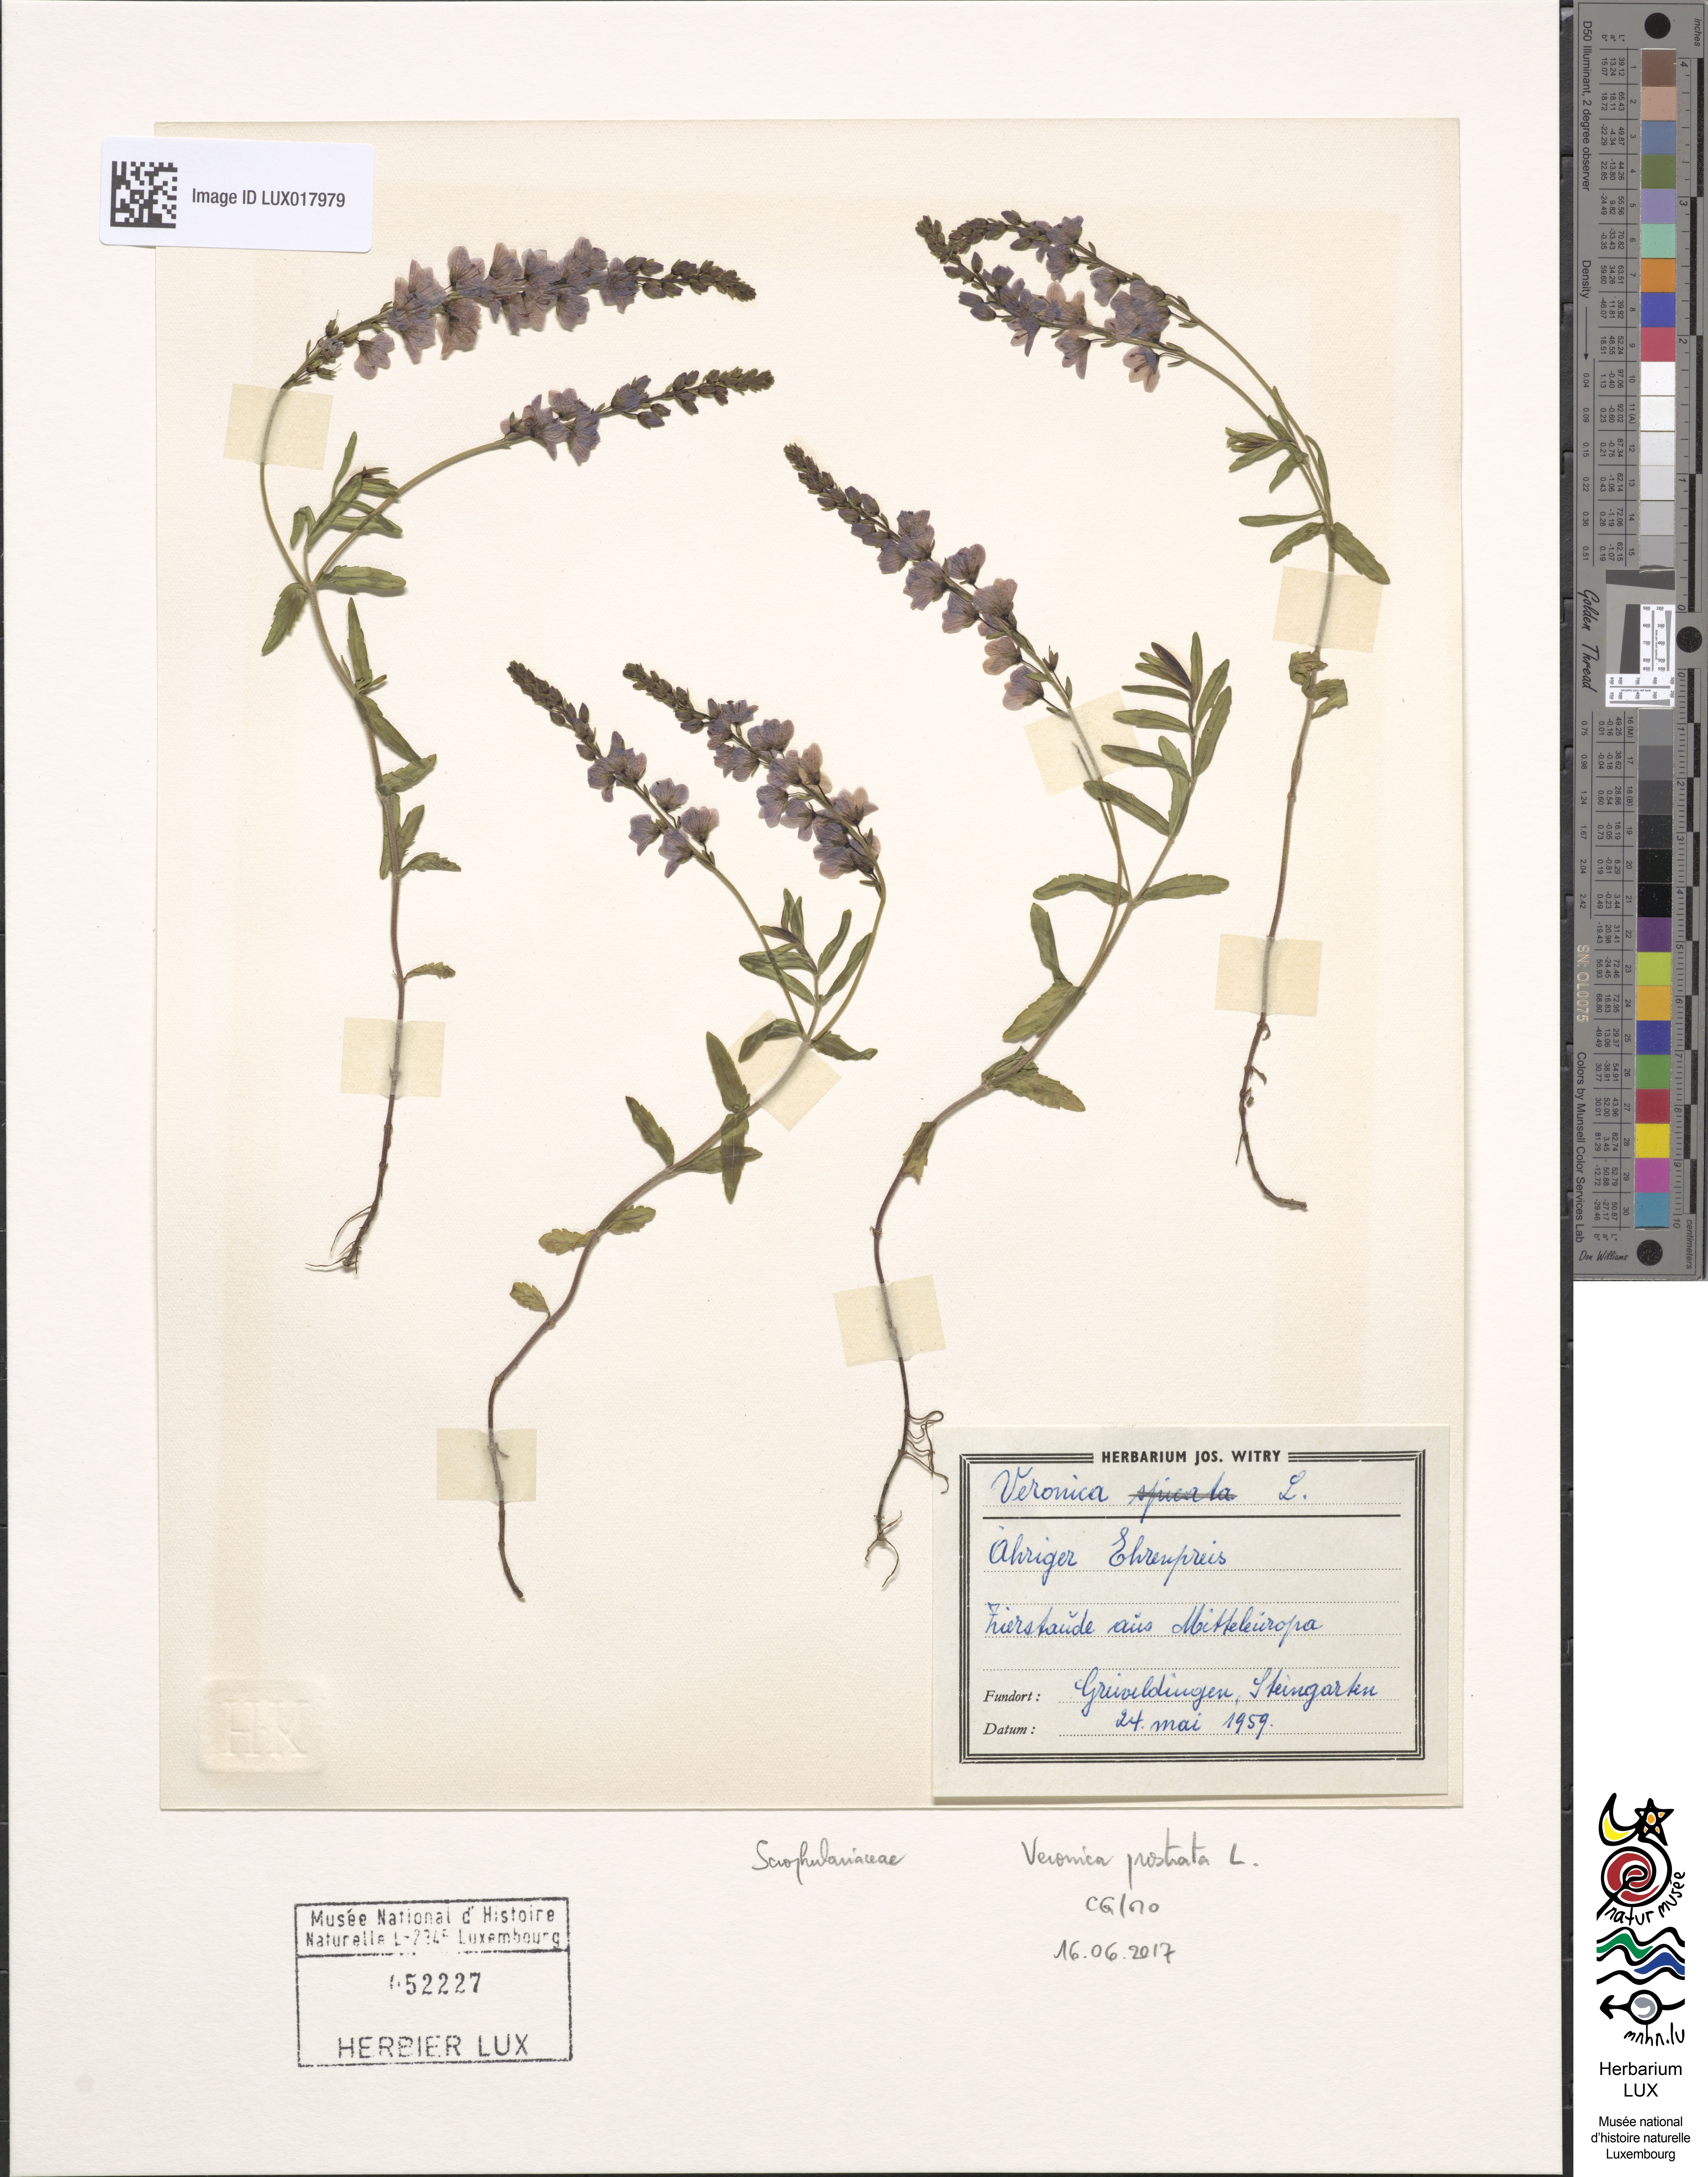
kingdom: Plantae
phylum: Tracheophyta
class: Magnoliopsida
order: Lamiales
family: Plantaginaceae
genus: Veronica
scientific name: Veronica prostrata
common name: Prostrate speedwell
